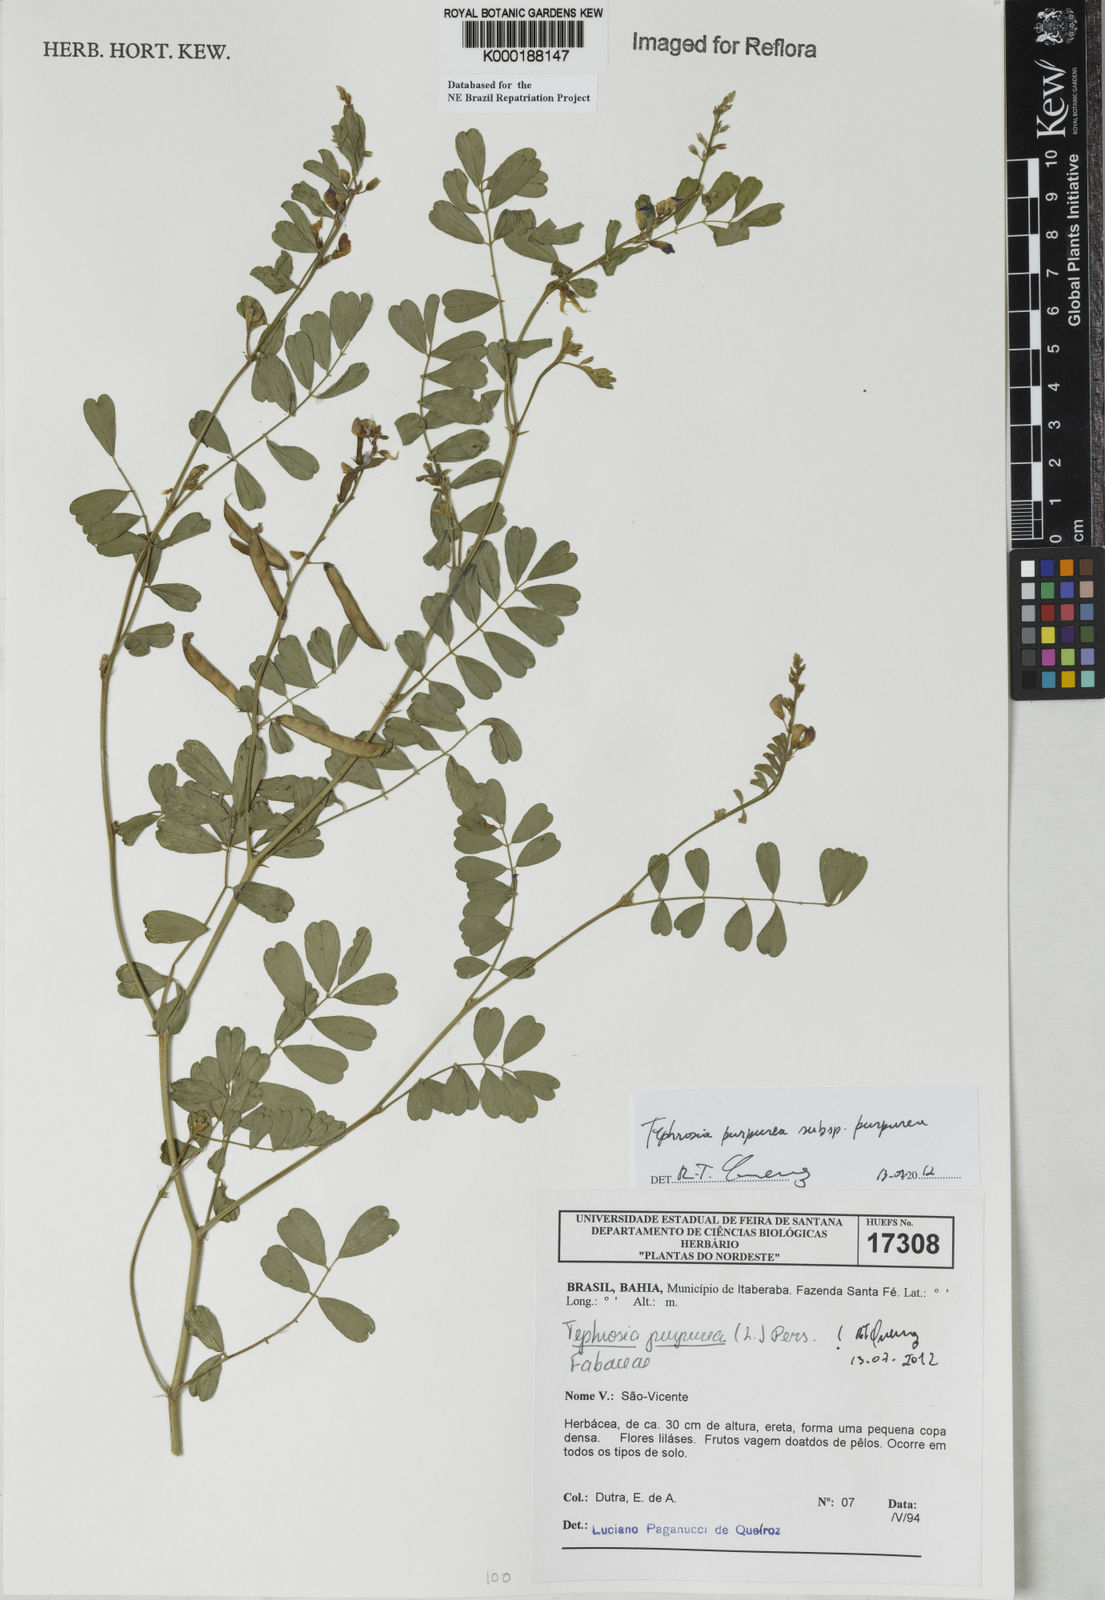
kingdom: Plantae
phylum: Tracheophyta
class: Magnoliopsida
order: Fabales
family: Fabaceae
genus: Tephrosia
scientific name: Tephrosia purpurea
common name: Fishpoison
